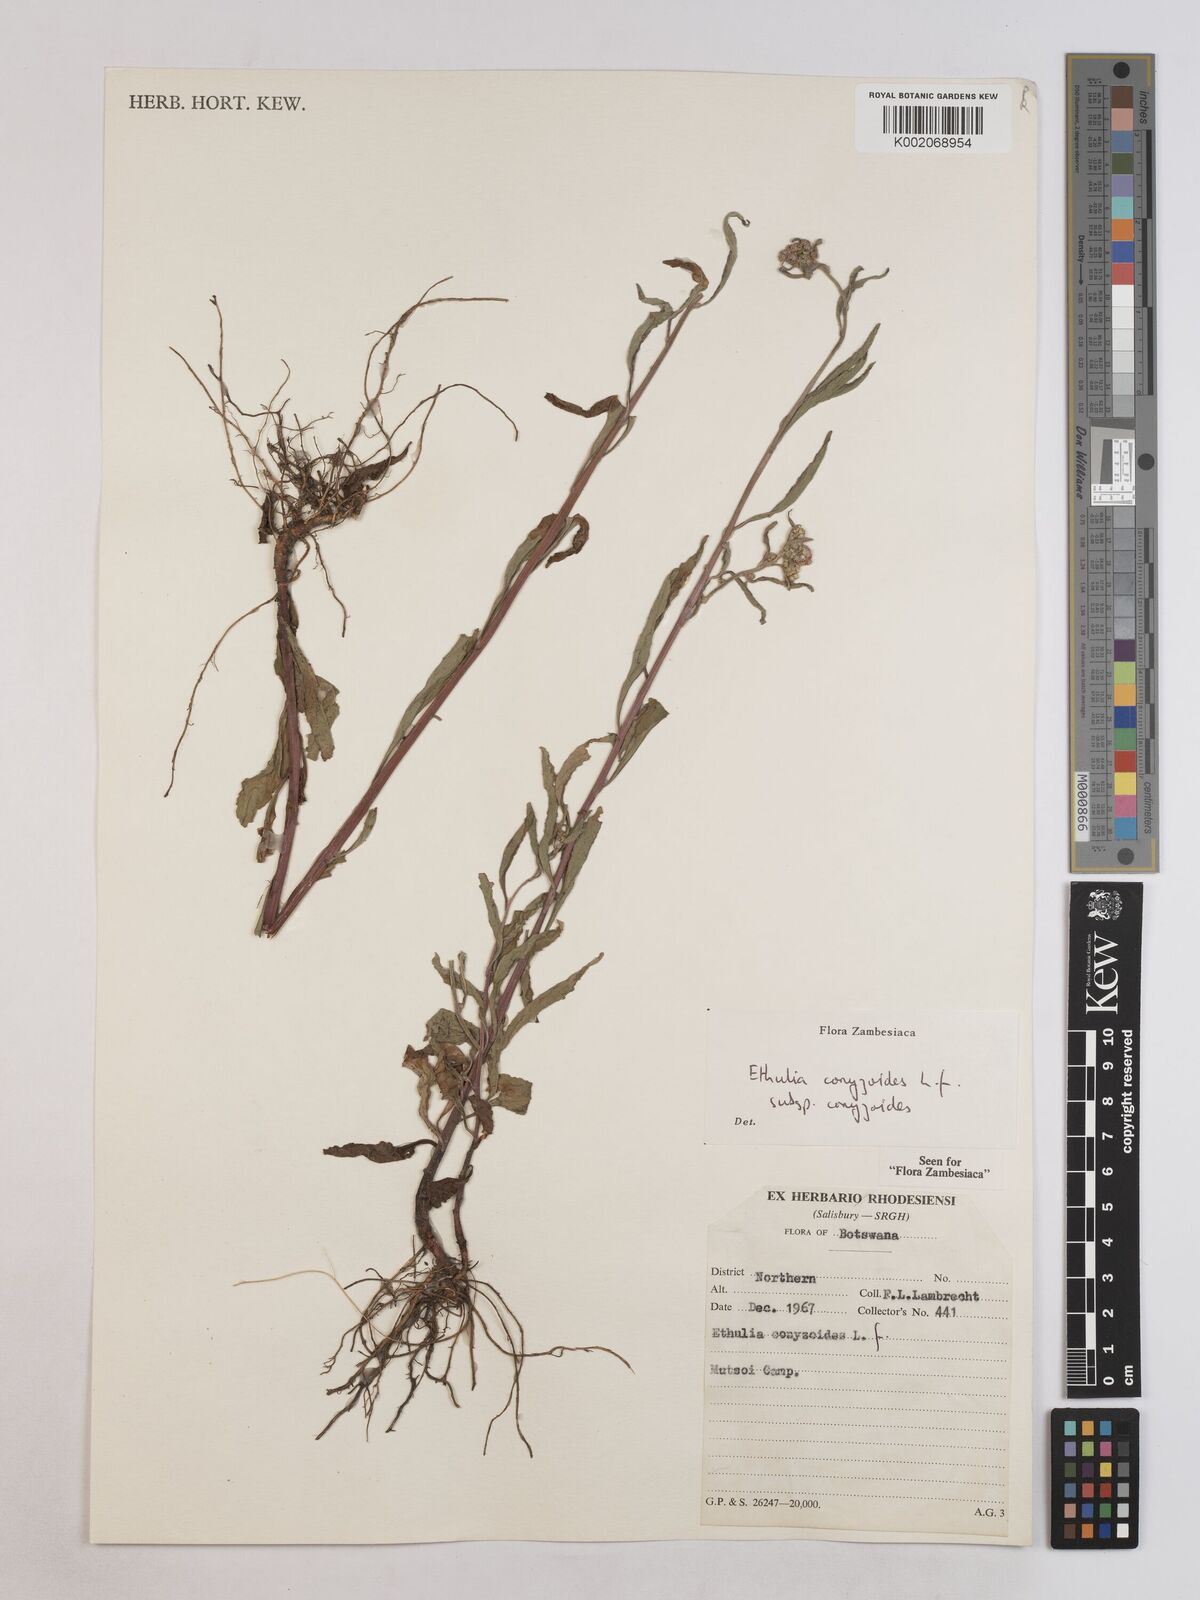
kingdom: Plantae
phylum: Tracheophyta
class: Magnoliopsida
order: Asterales
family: Asteraceae
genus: Ethulia
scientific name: Ethulia conyzoides
